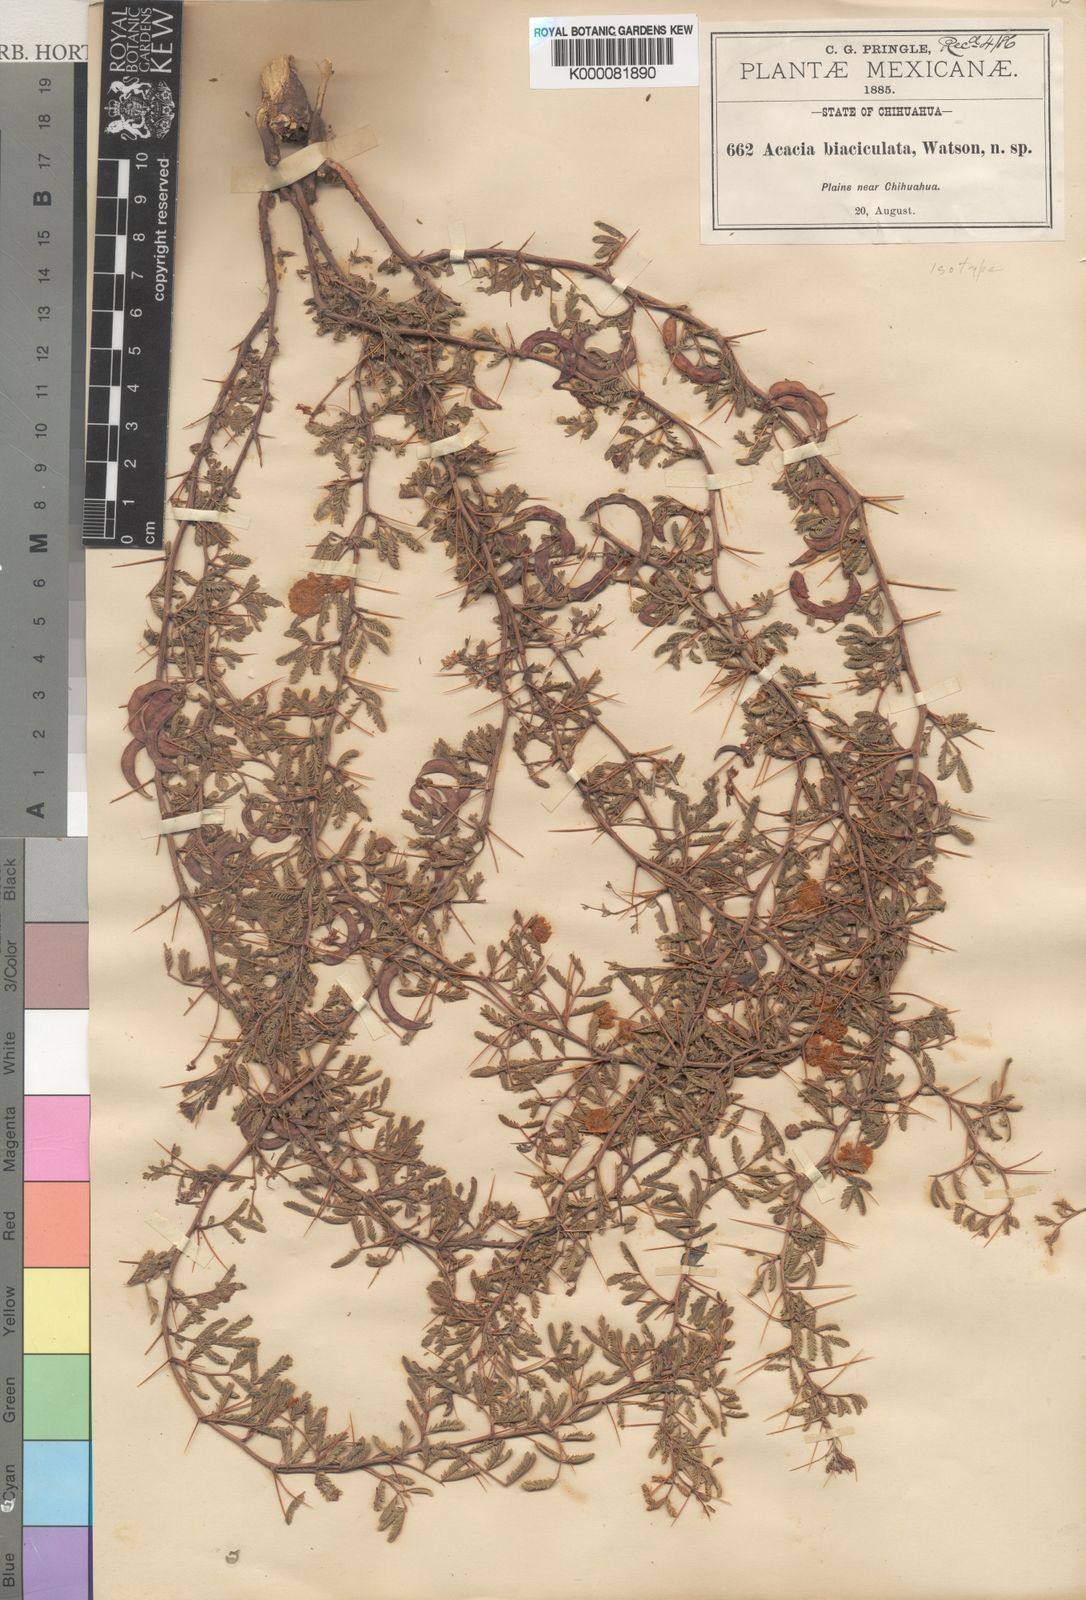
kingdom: Plantae
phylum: Tracheophyta
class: Magnoliopsida
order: Fabales
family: Fabaceae
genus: Vachellia
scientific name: Vachellia biaciculata
